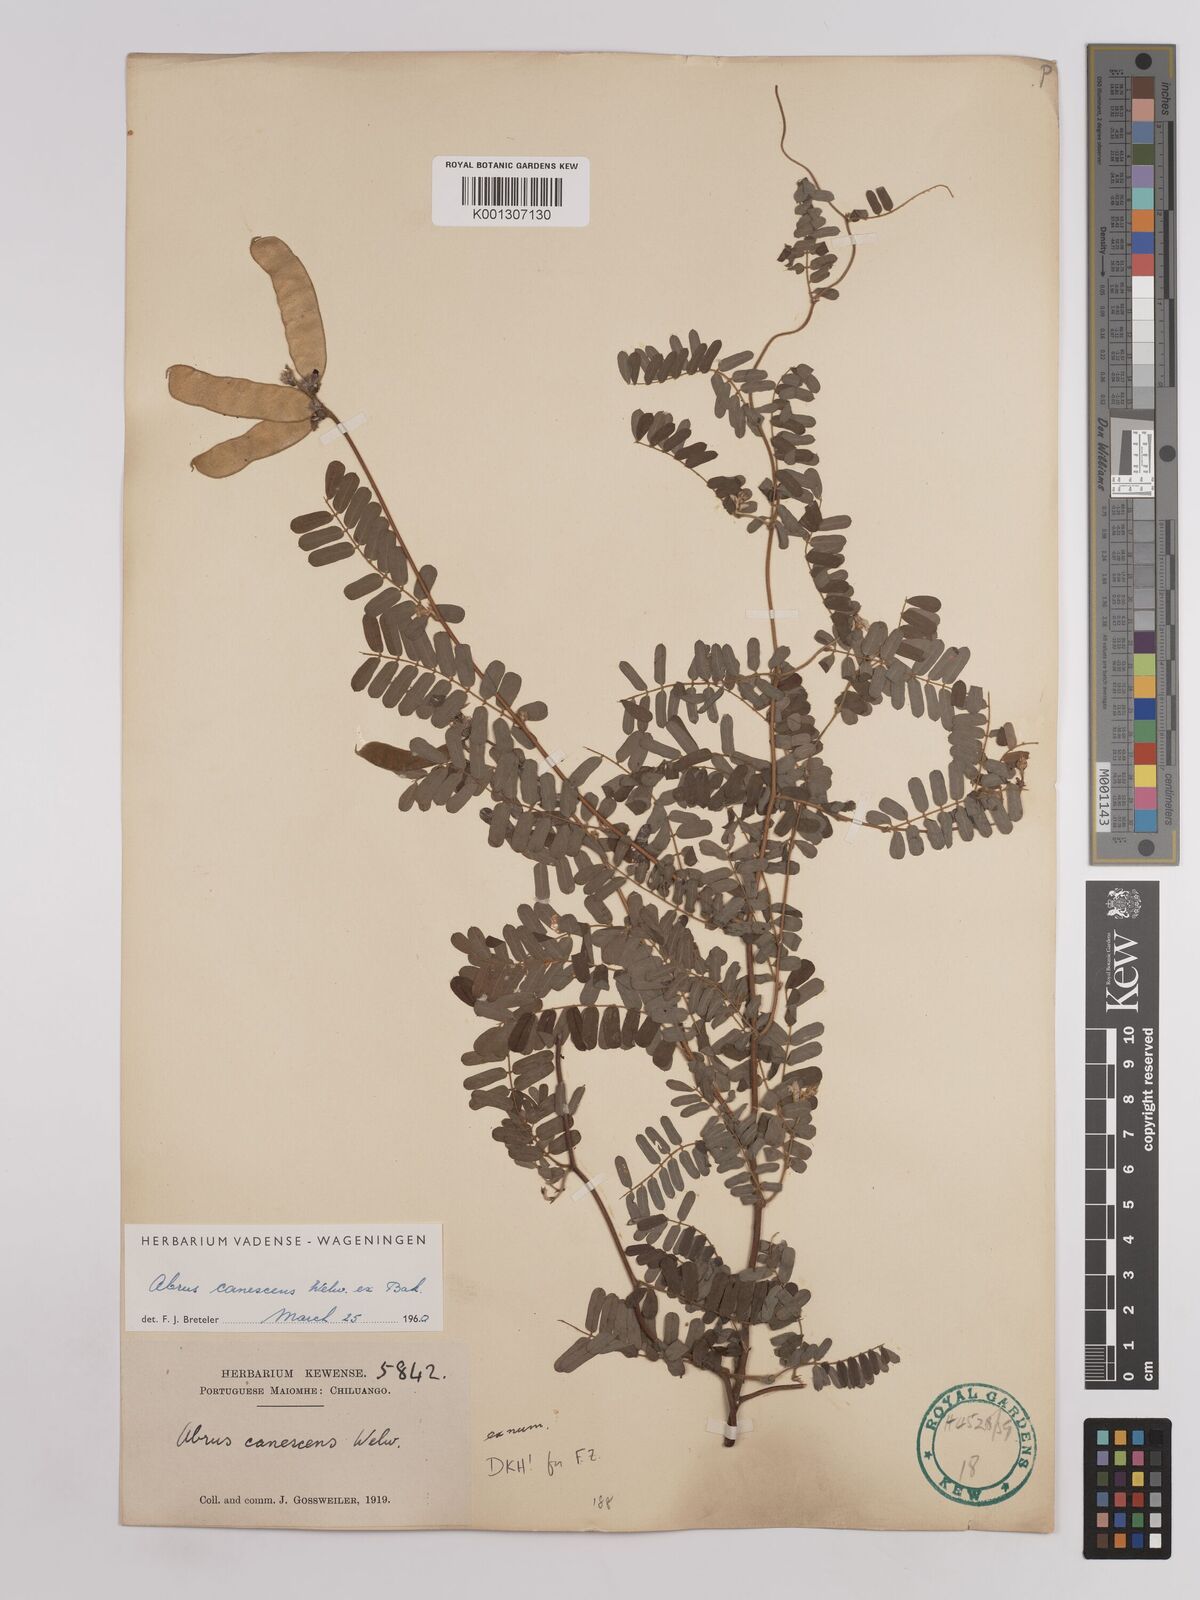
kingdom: Plantae
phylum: Tracheophyta
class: Magnoliopsida
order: Fabales
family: Fabaceae
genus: Abrus
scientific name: Abrus
